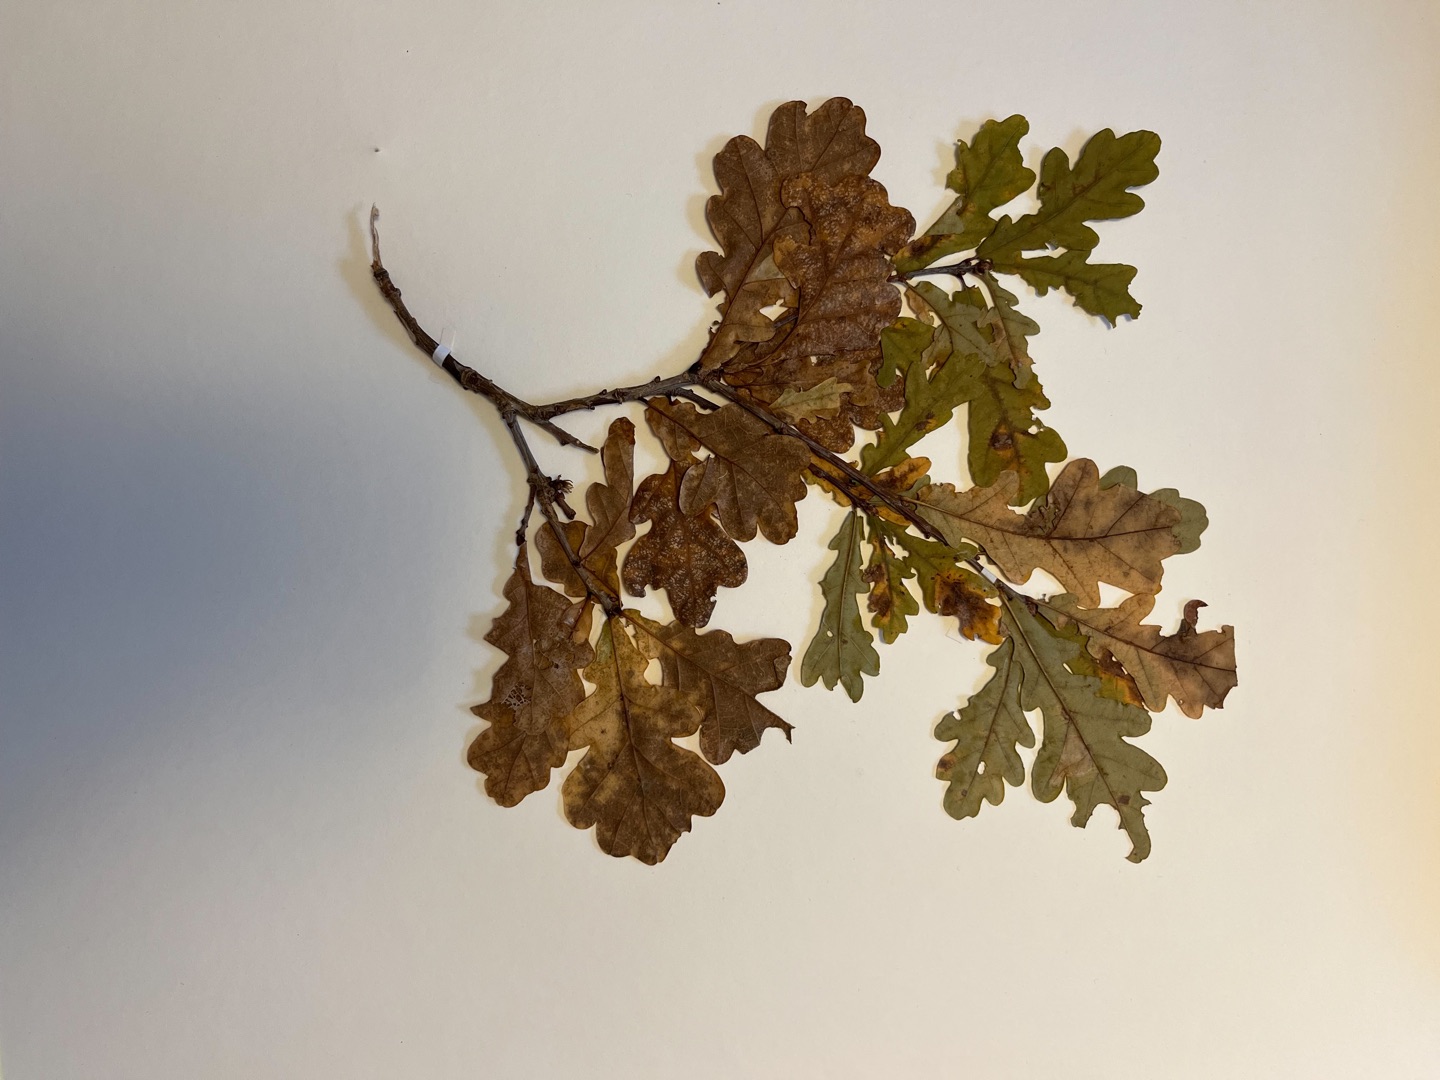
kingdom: Plantae
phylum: Tracheophyta
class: Magnoliopsida
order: Fagales
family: Fagaceae
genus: Quercus
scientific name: Quercus robur
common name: Stilk-eg/almindelig eg
